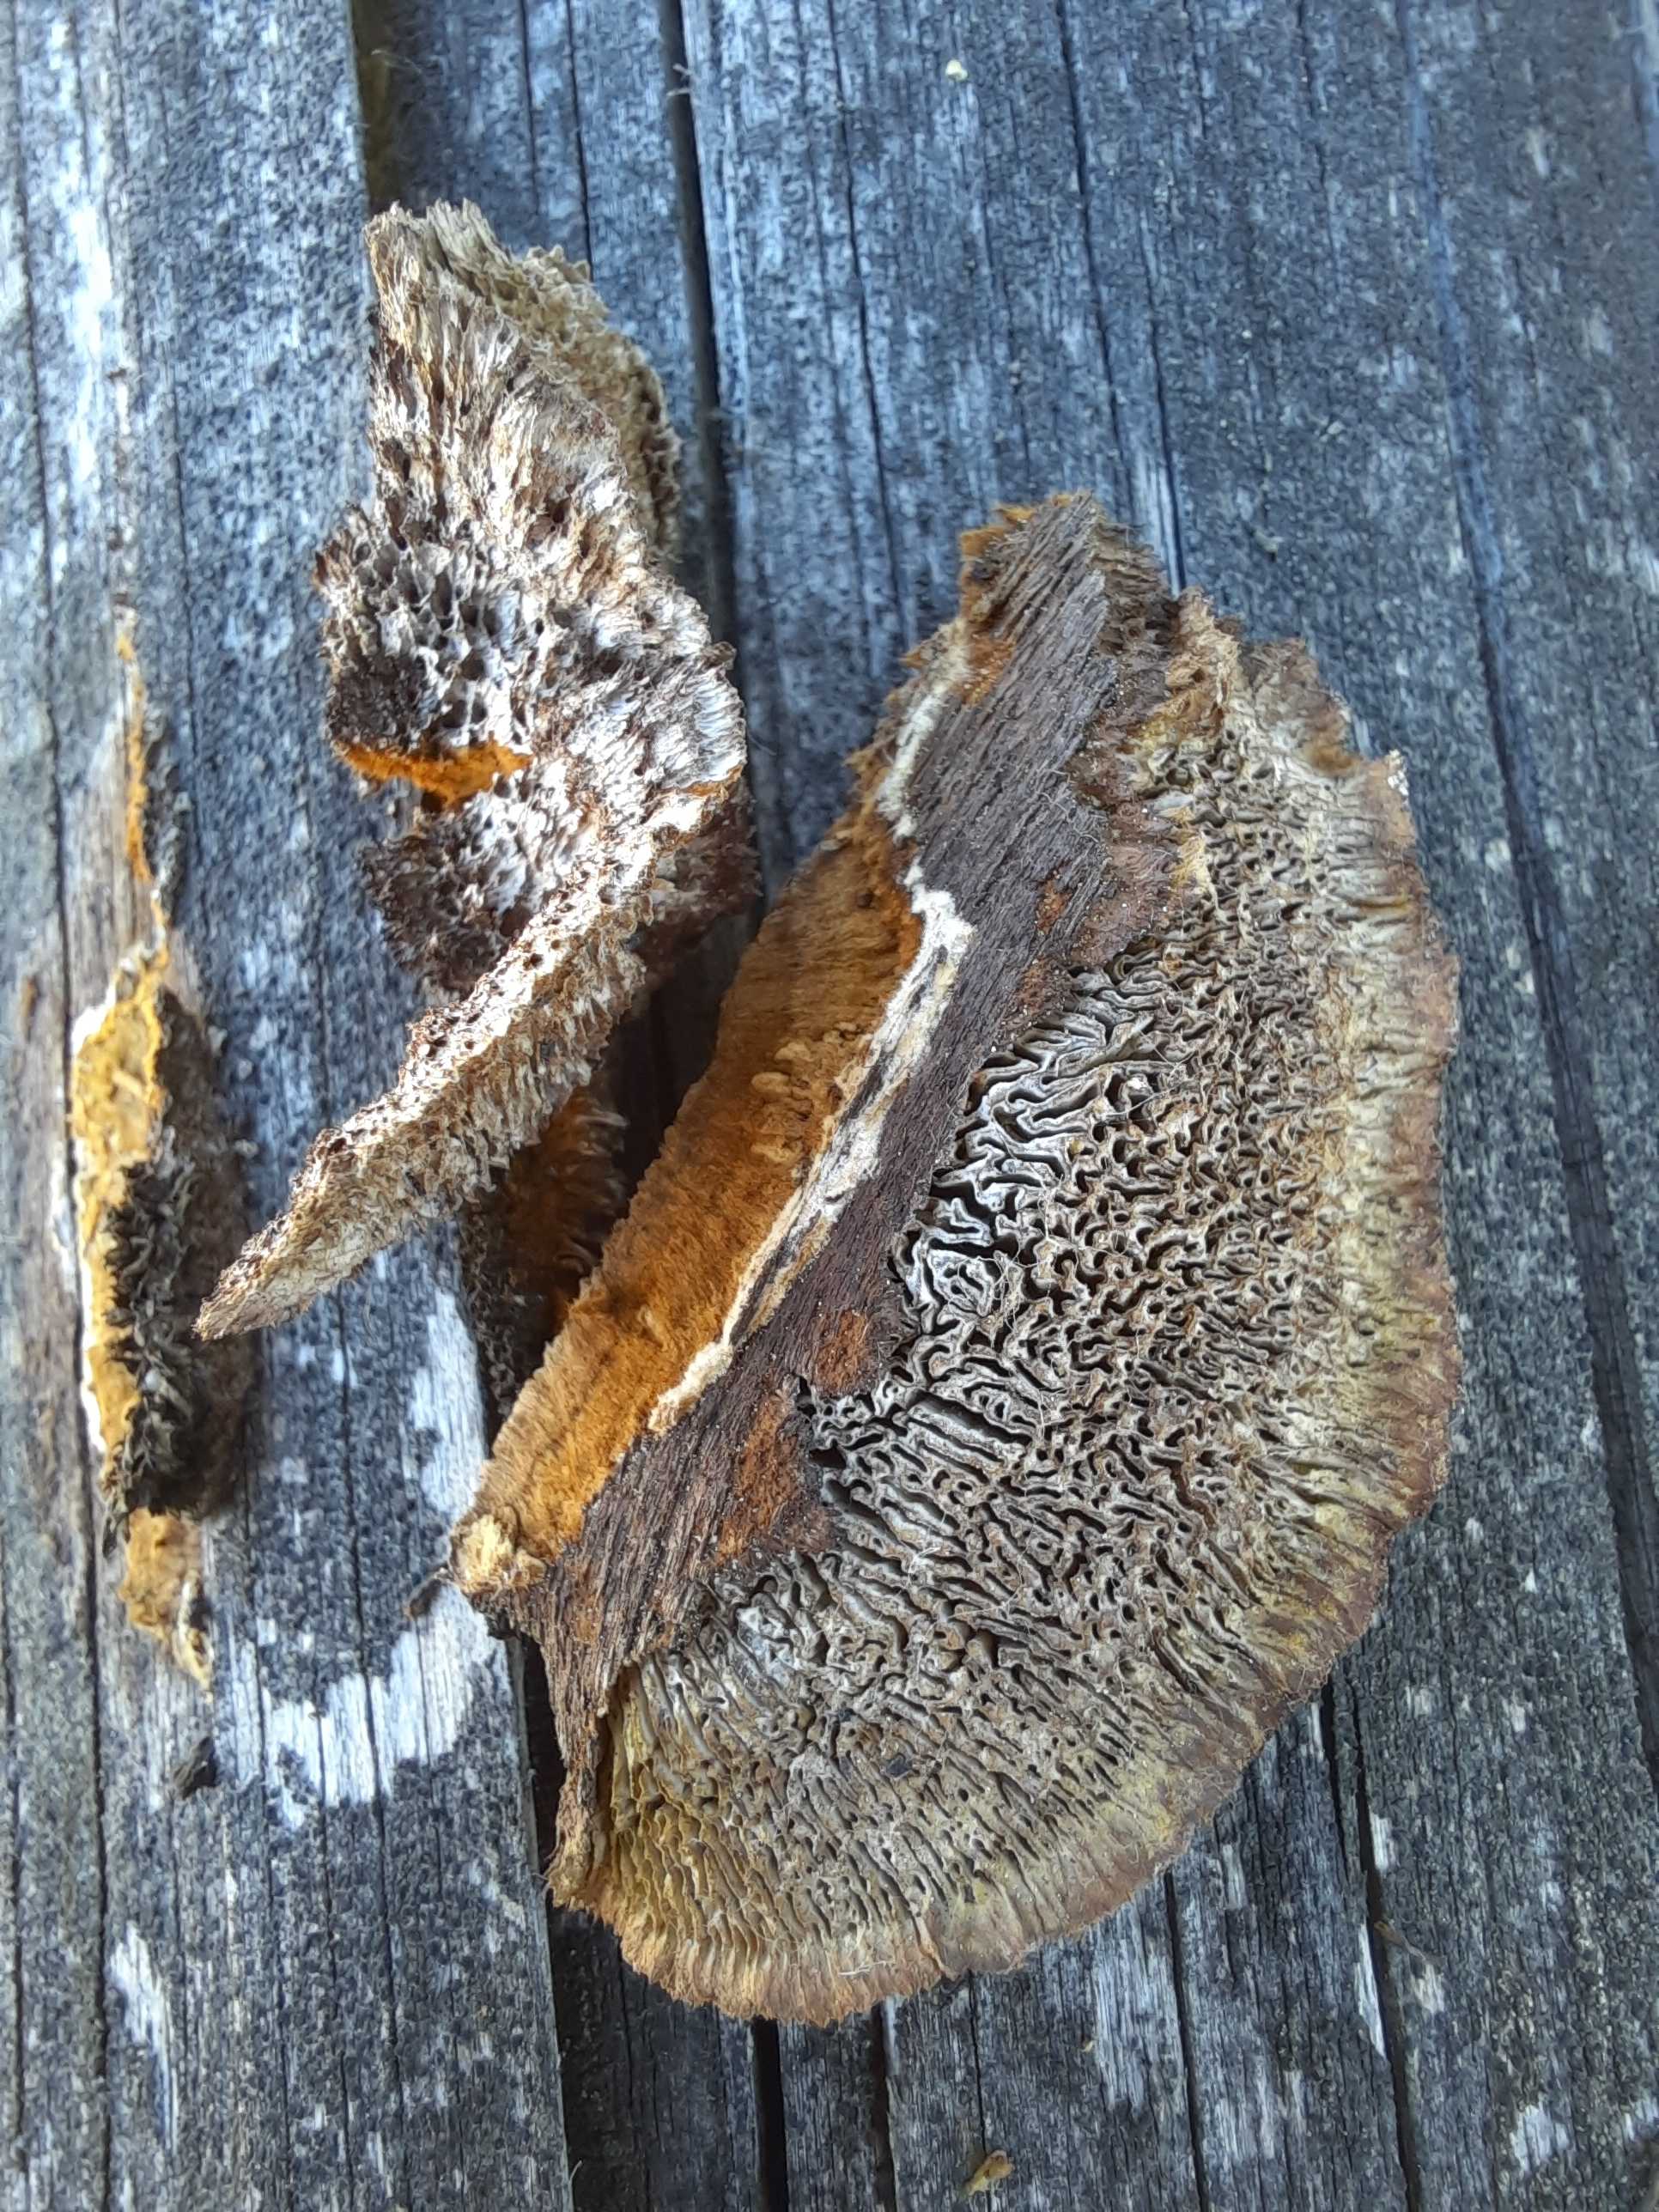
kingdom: Fungi
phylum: Basidiomycota
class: Agaricomycetes
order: Gloeophyllales
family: Gloeophyllaceae
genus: Gloeophyllum
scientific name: Gloeophyllum sepiarium
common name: fyrre-korkhat
